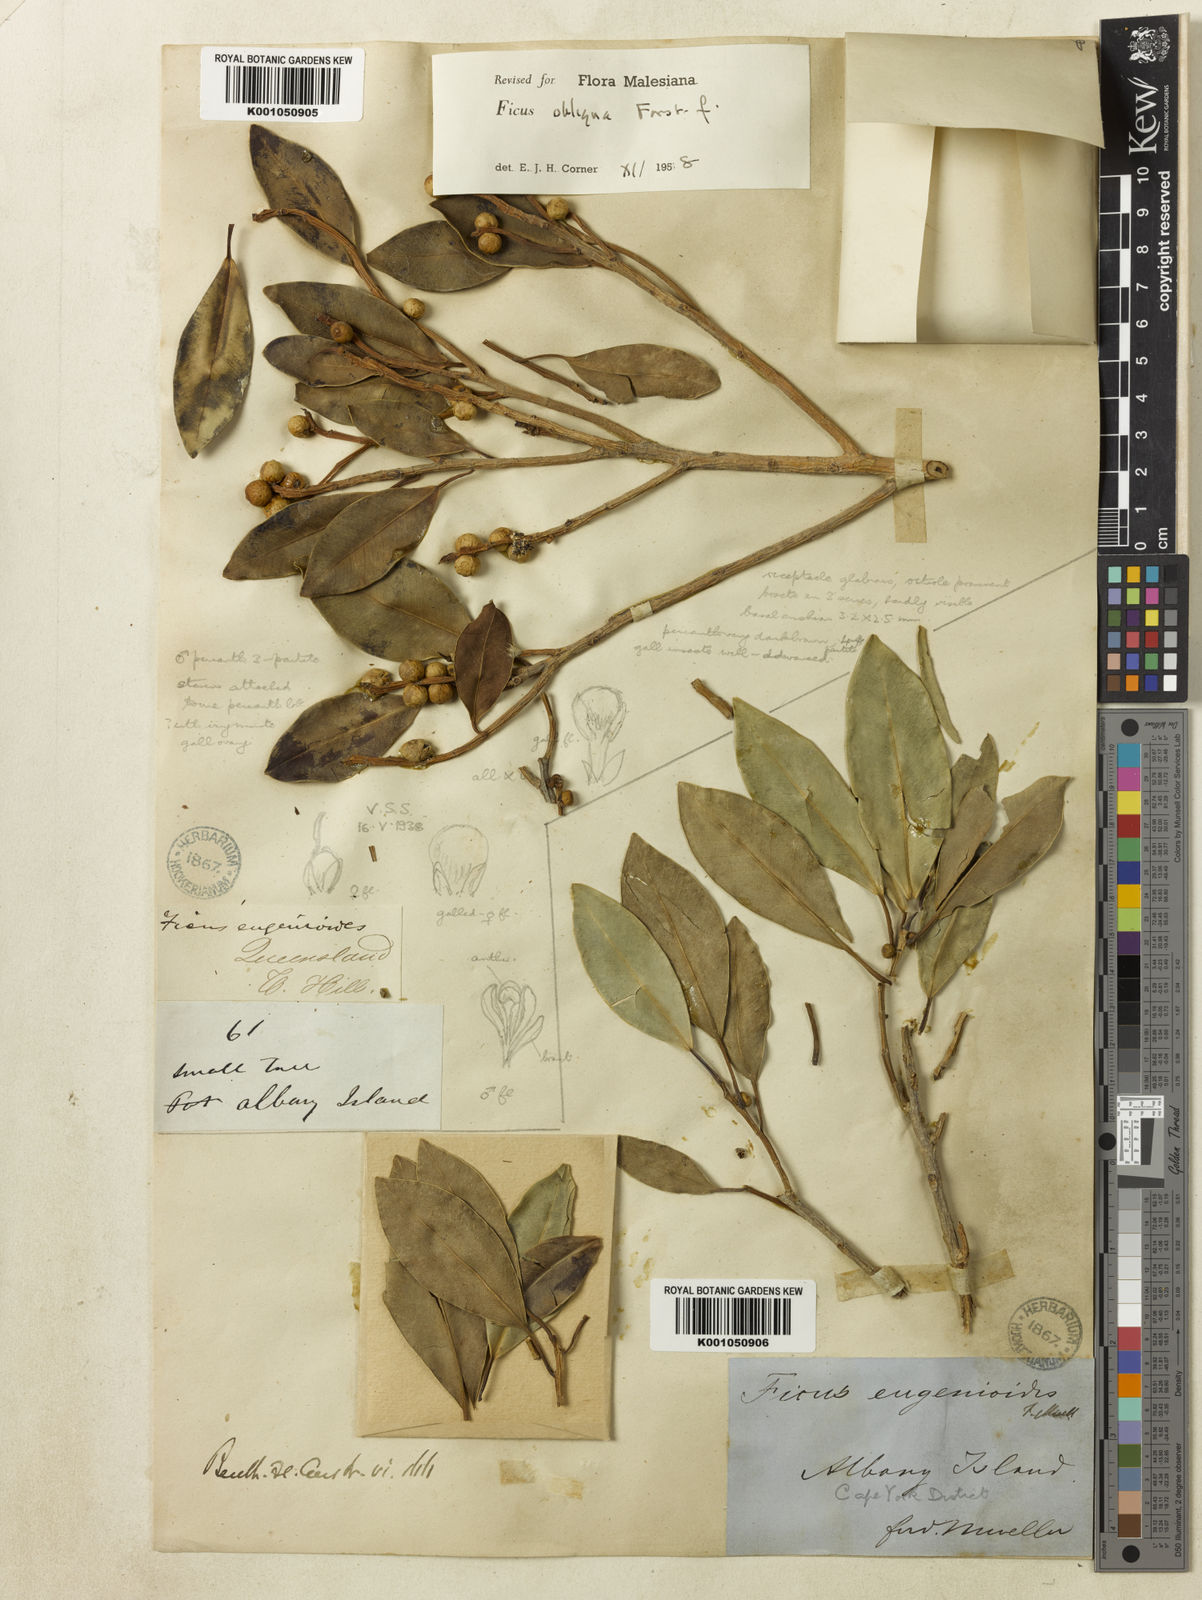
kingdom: Plantae
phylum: Tracheophyta
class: Magnoliopsida
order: Rosales
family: Moraceae
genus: Ficus
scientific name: Ficus obliqua
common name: Small-leaf fig
